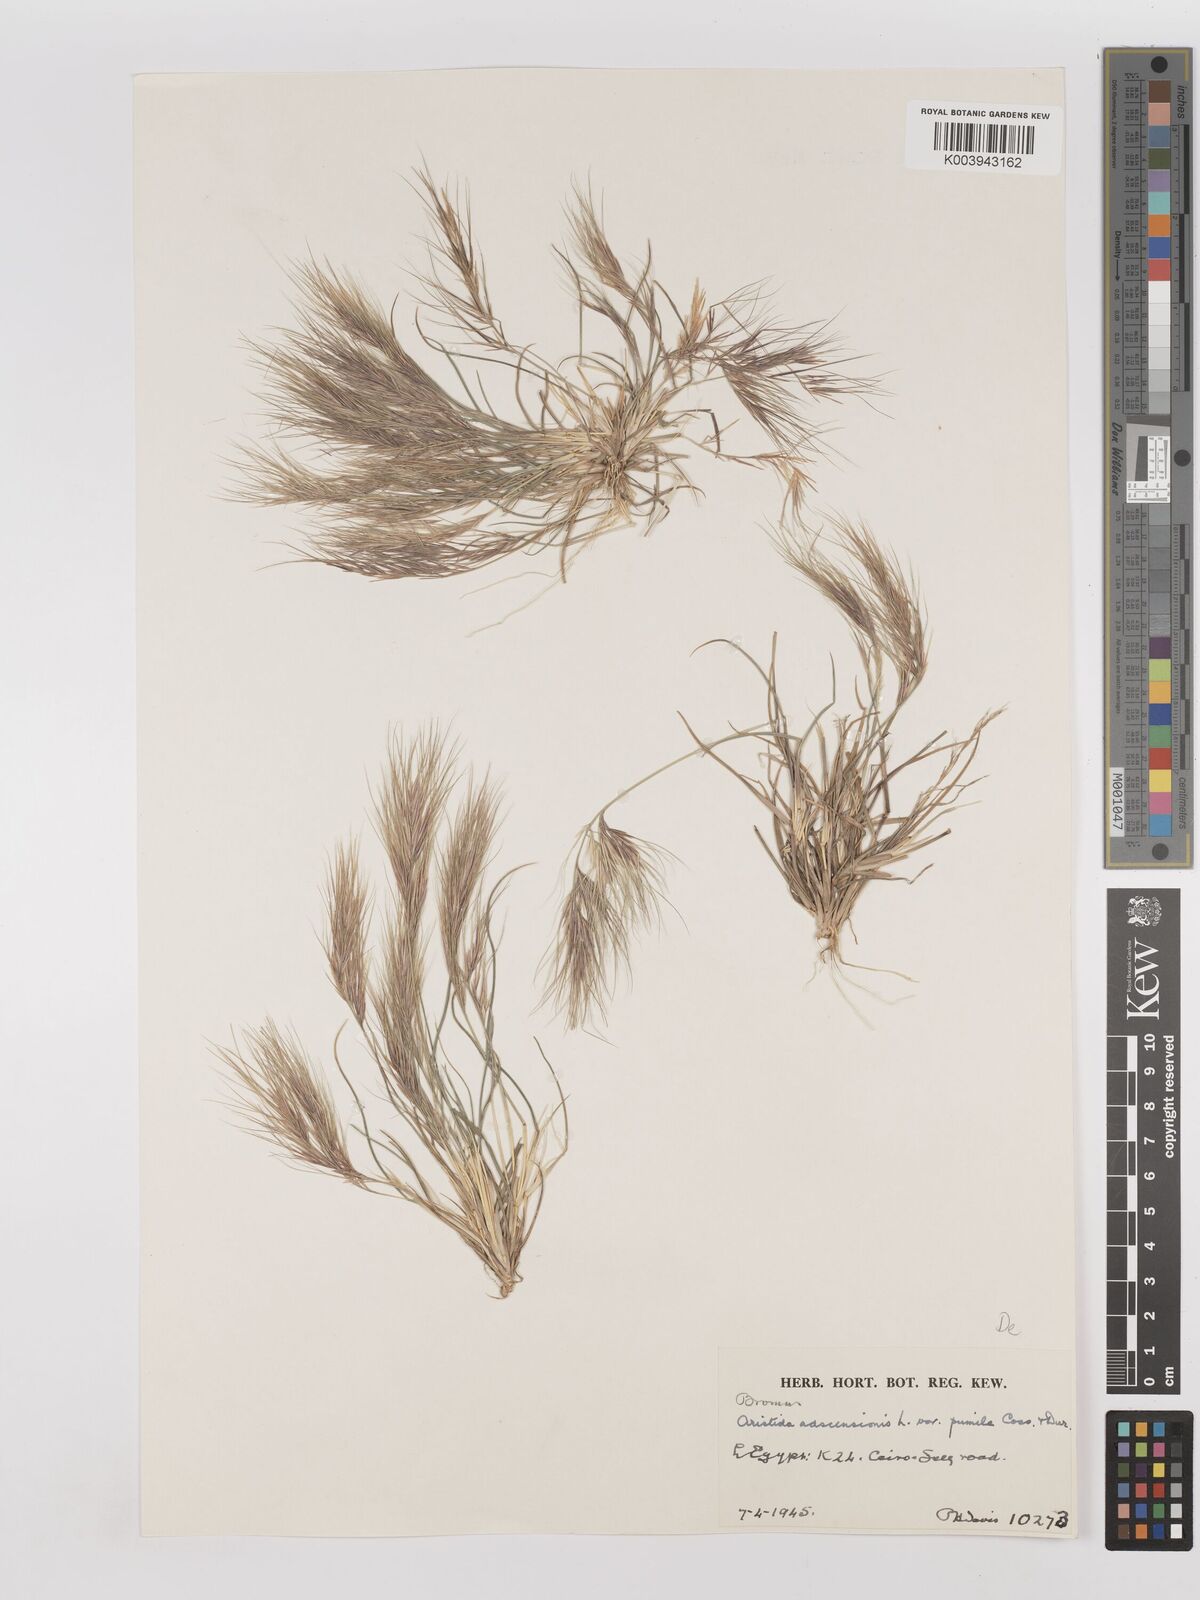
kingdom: Plantae
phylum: Tracheophyta
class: Liliopsida
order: Poales
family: Poaceae
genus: Aristida
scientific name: Aristida adscensionis
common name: Sixweeks threeawn
